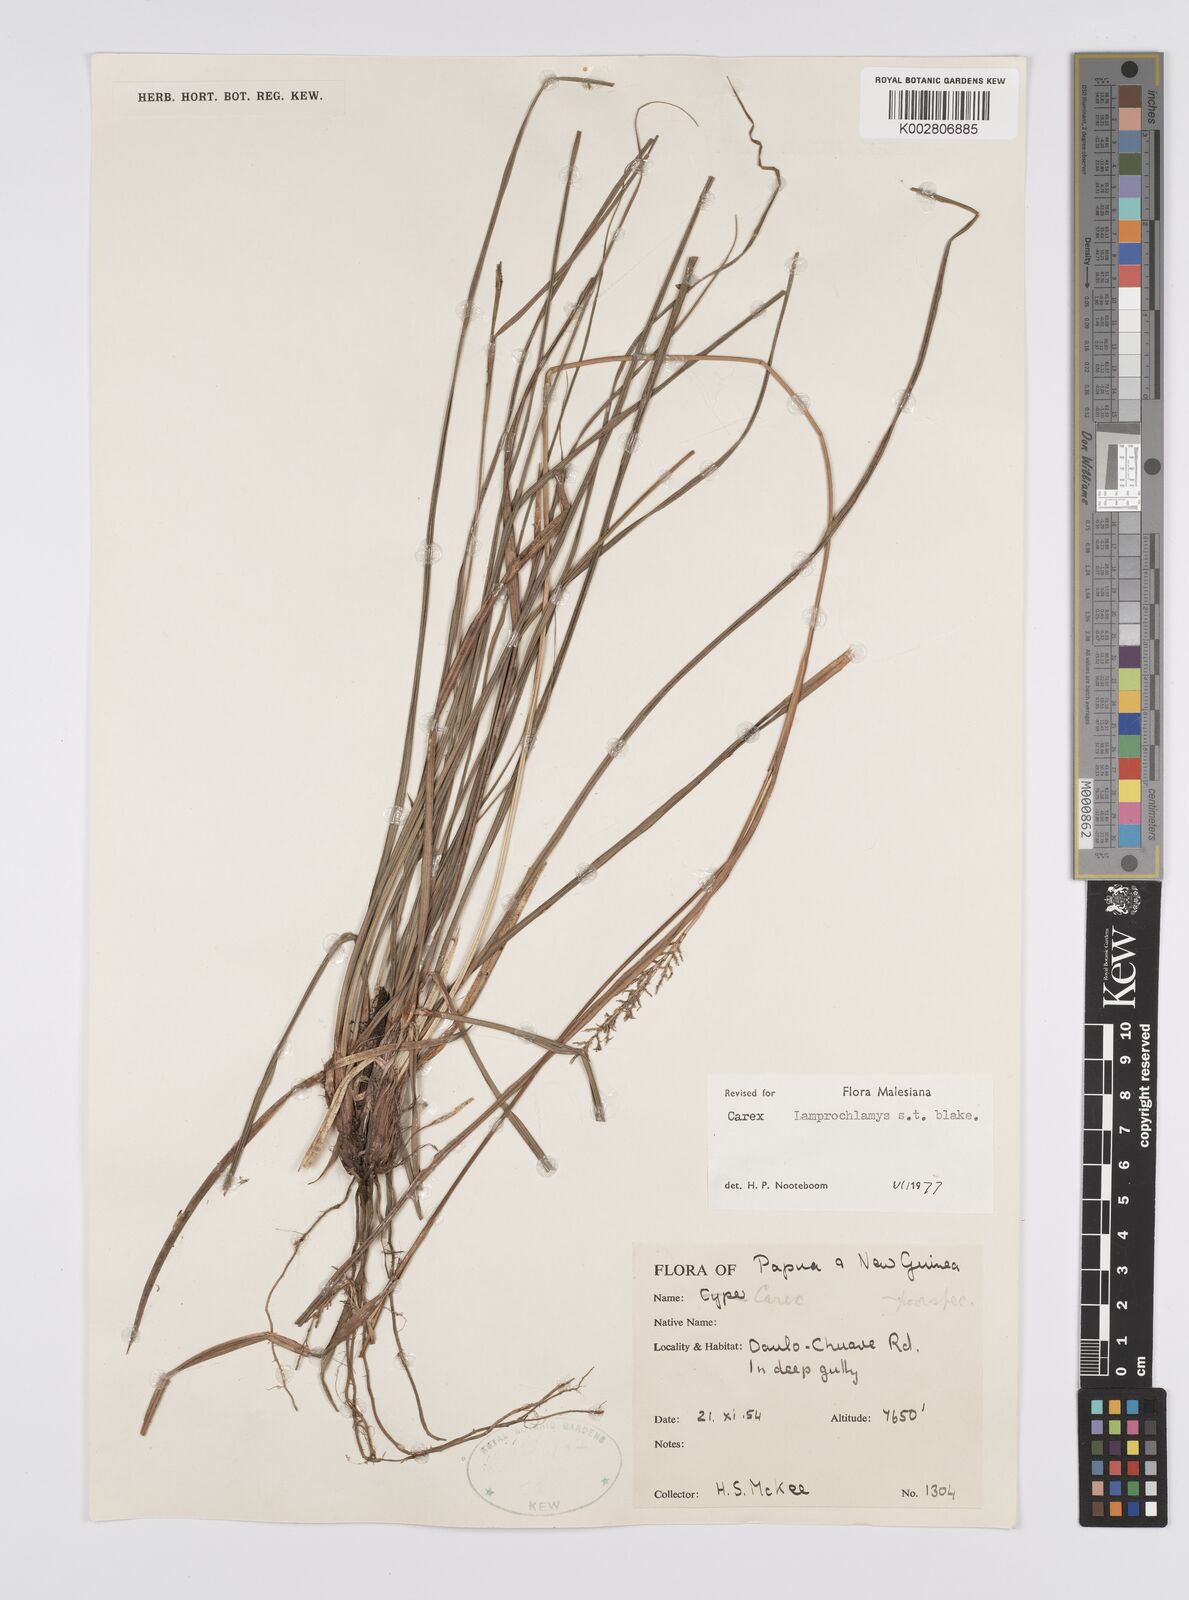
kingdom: Plantae
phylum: Tracheophyta
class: Liliopsida
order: Poales
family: Cyperaceae
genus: Carex
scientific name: Carex lamprochlamys
